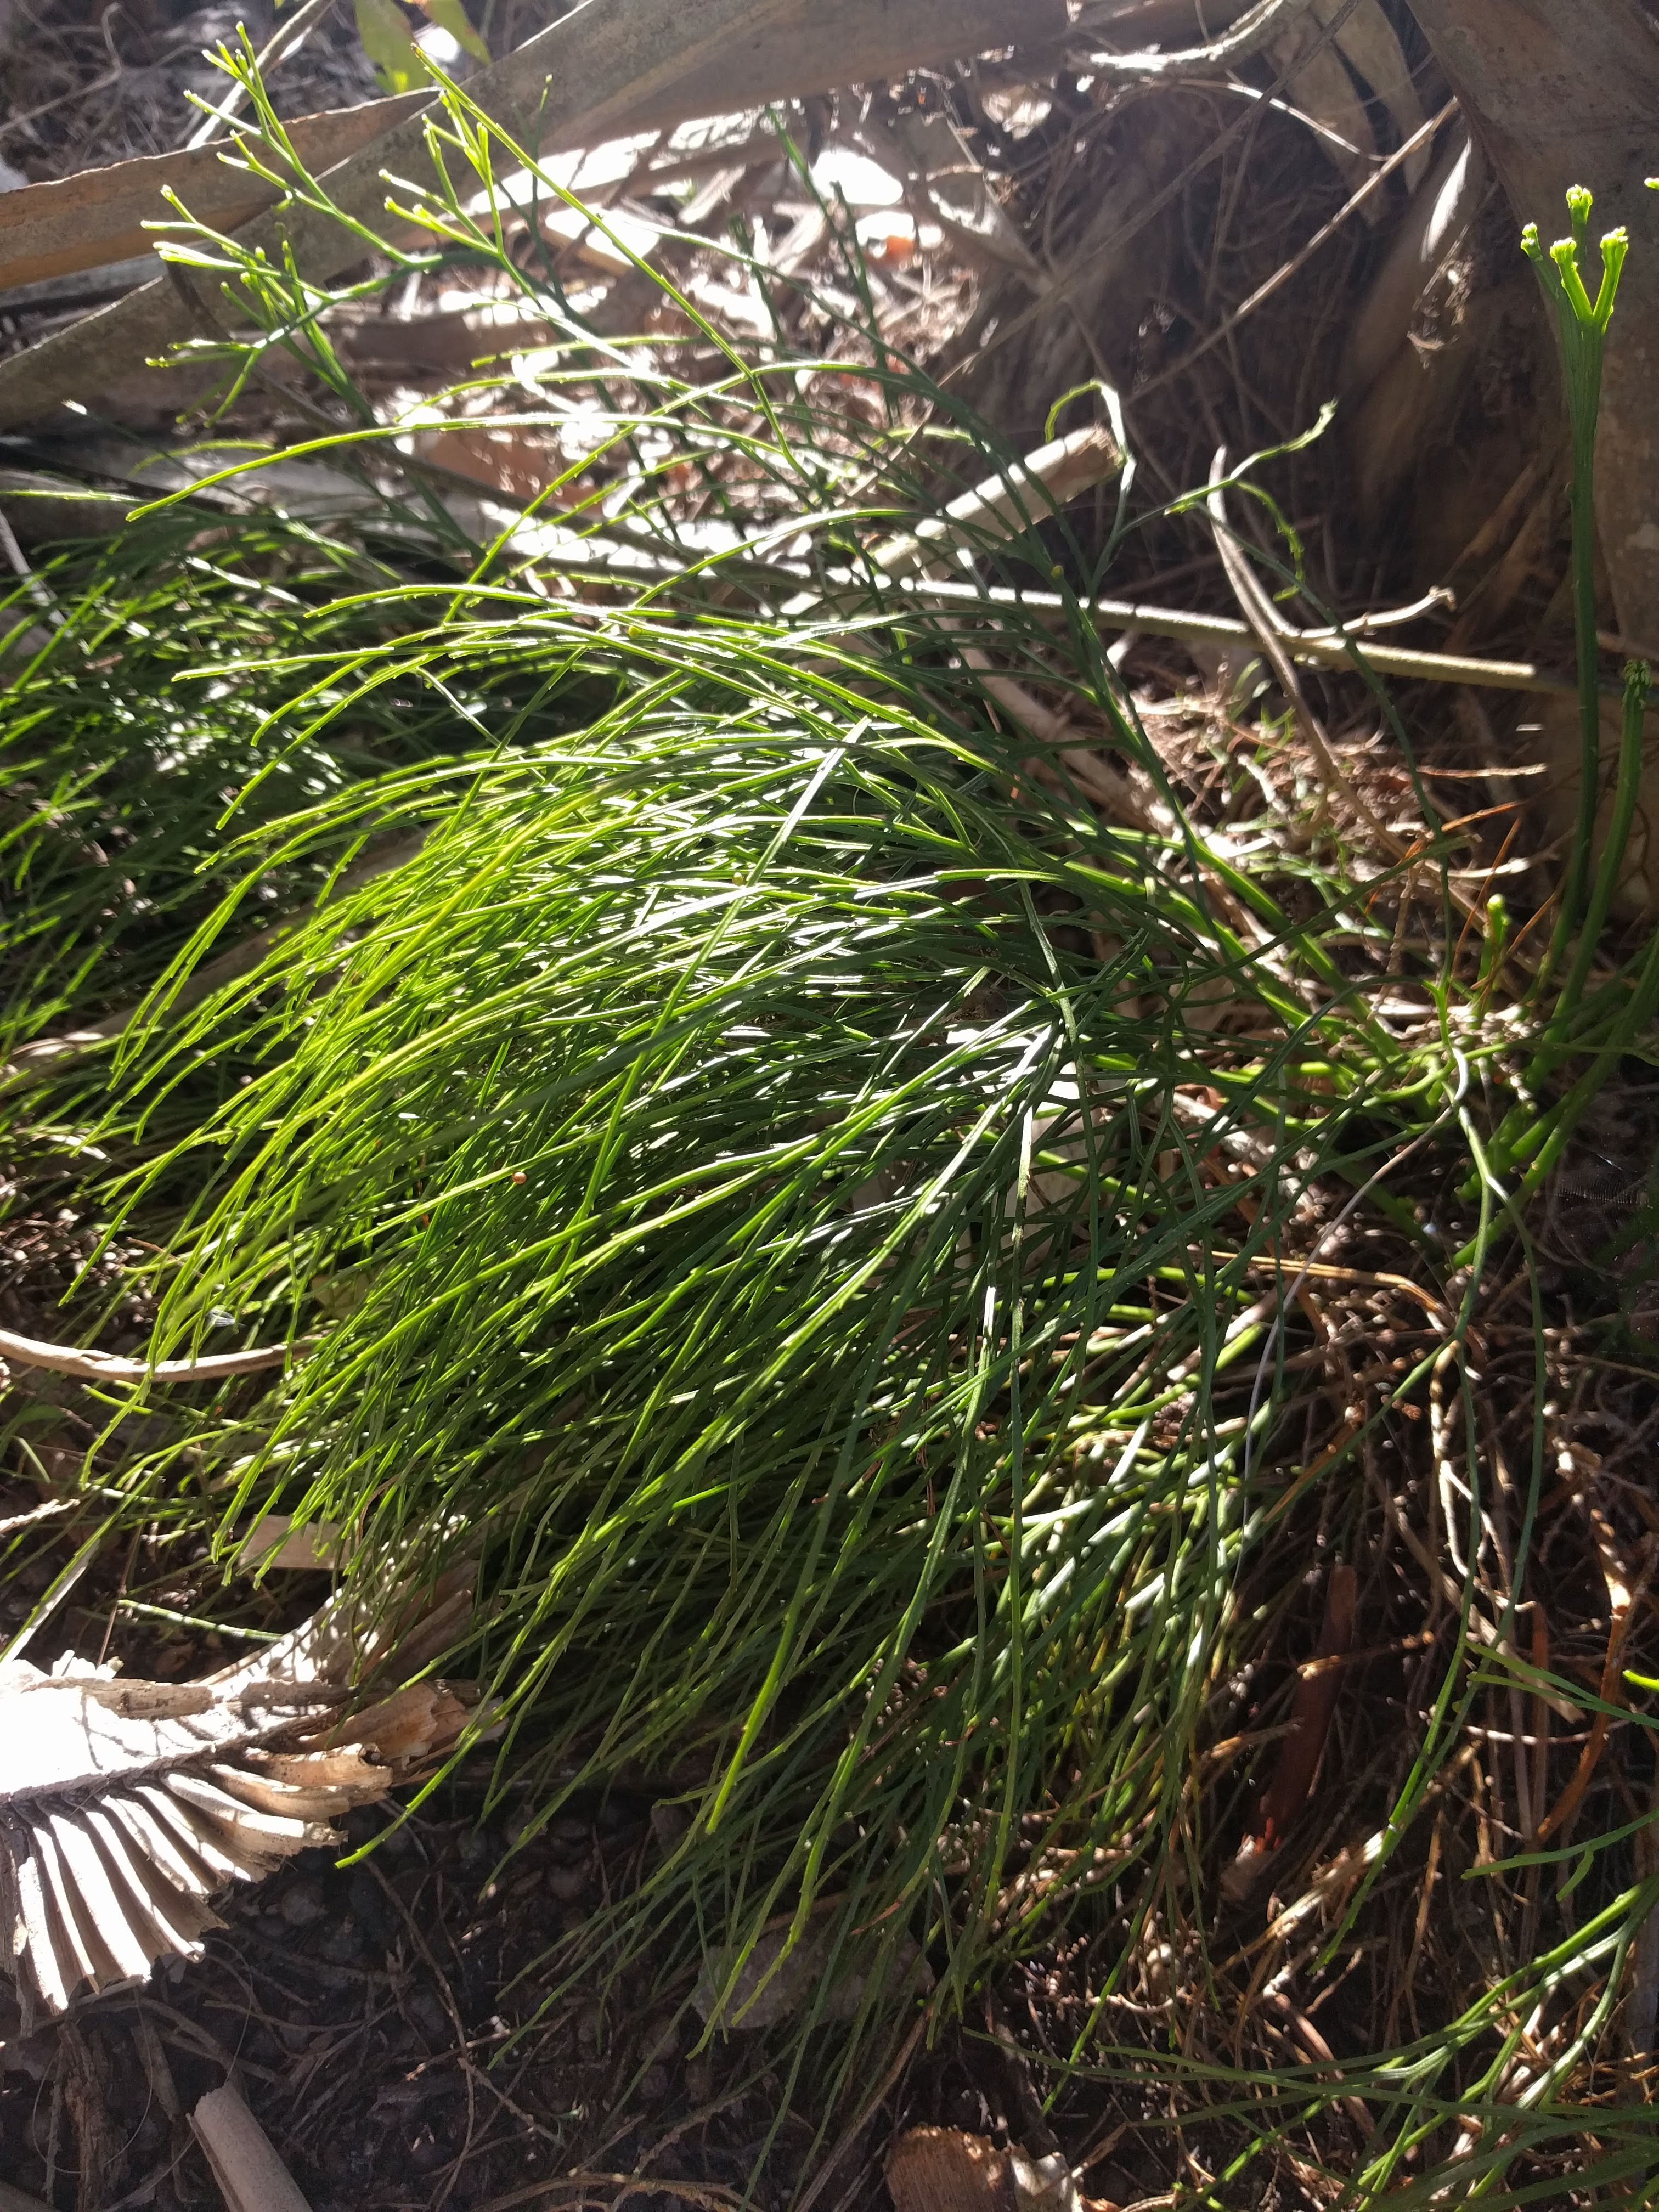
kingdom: Plantae
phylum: Tracheophyta
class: Polypodiopsida
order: Psilotales
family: Psilotaceae
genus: Psilotum
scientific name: Psilotum nudum
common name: Skeleton fork fern
